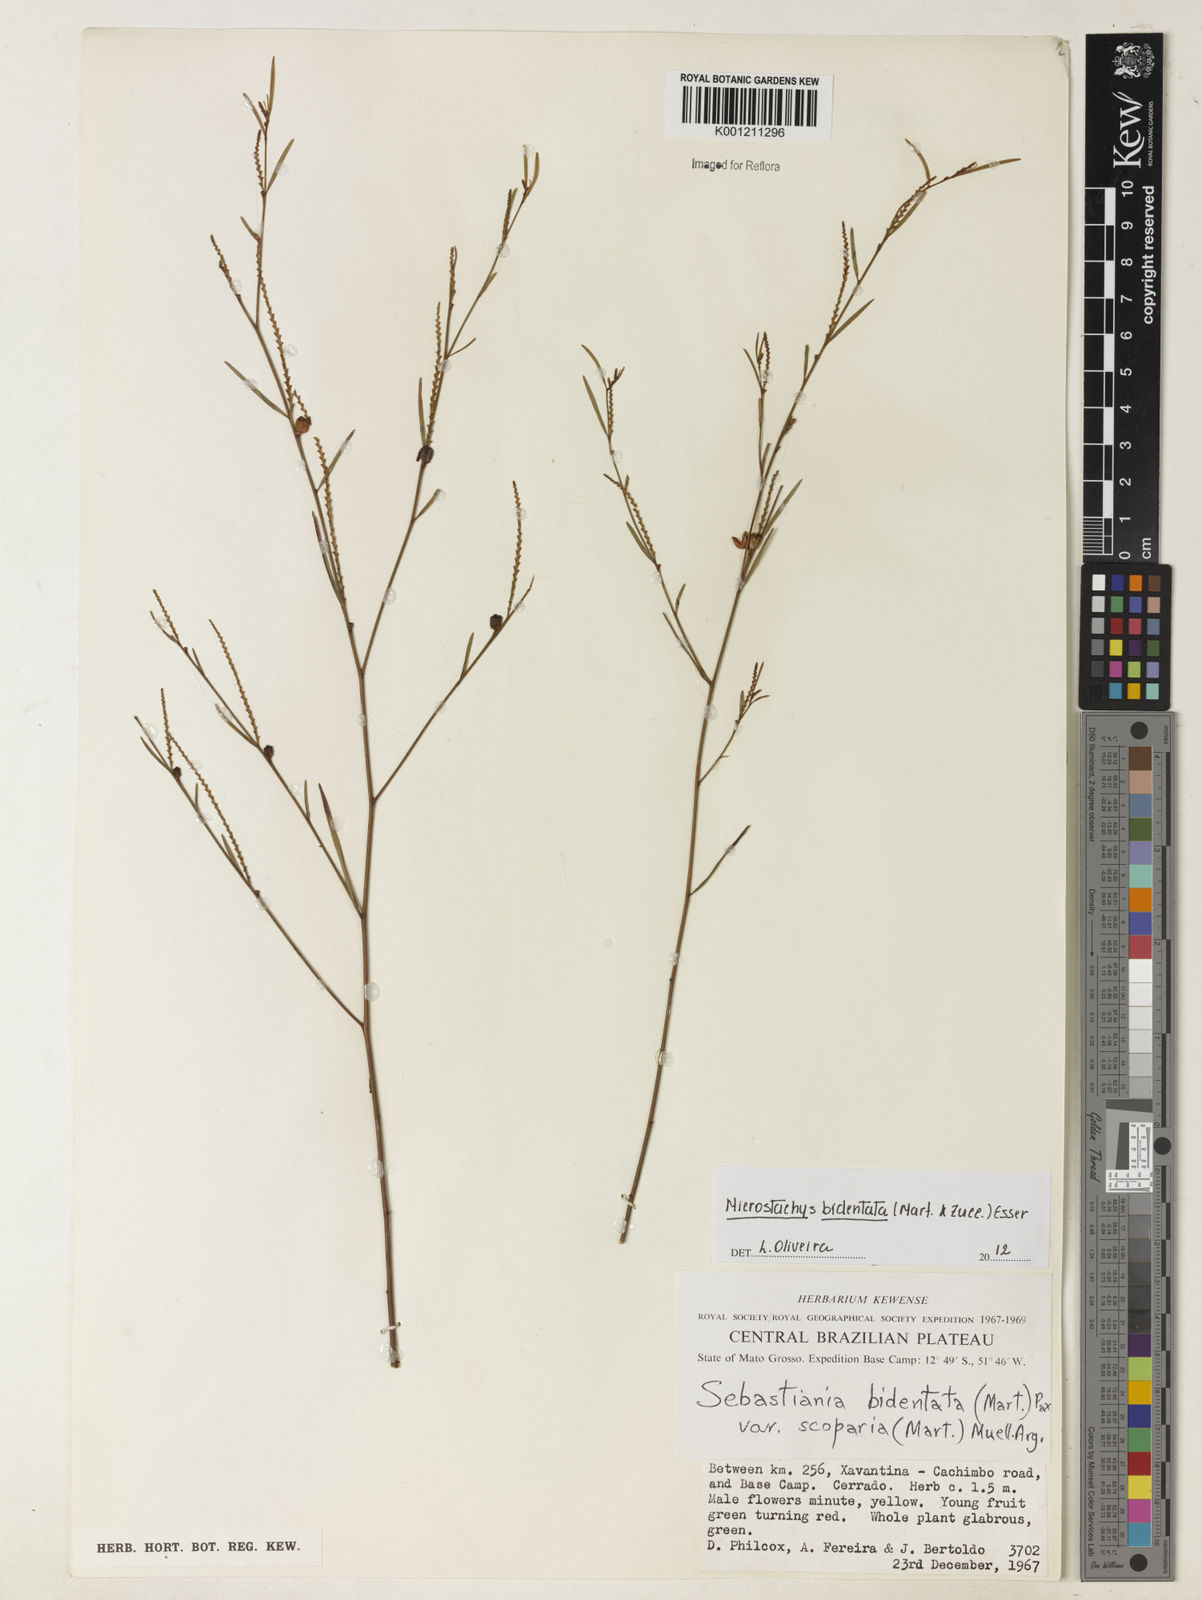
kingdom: Plantae
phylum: Tracheophyta
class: Magnoliopsida
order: Malpighiales
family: Euphorbiaceae
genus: Microstachys
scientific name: Microstachys bidentata
